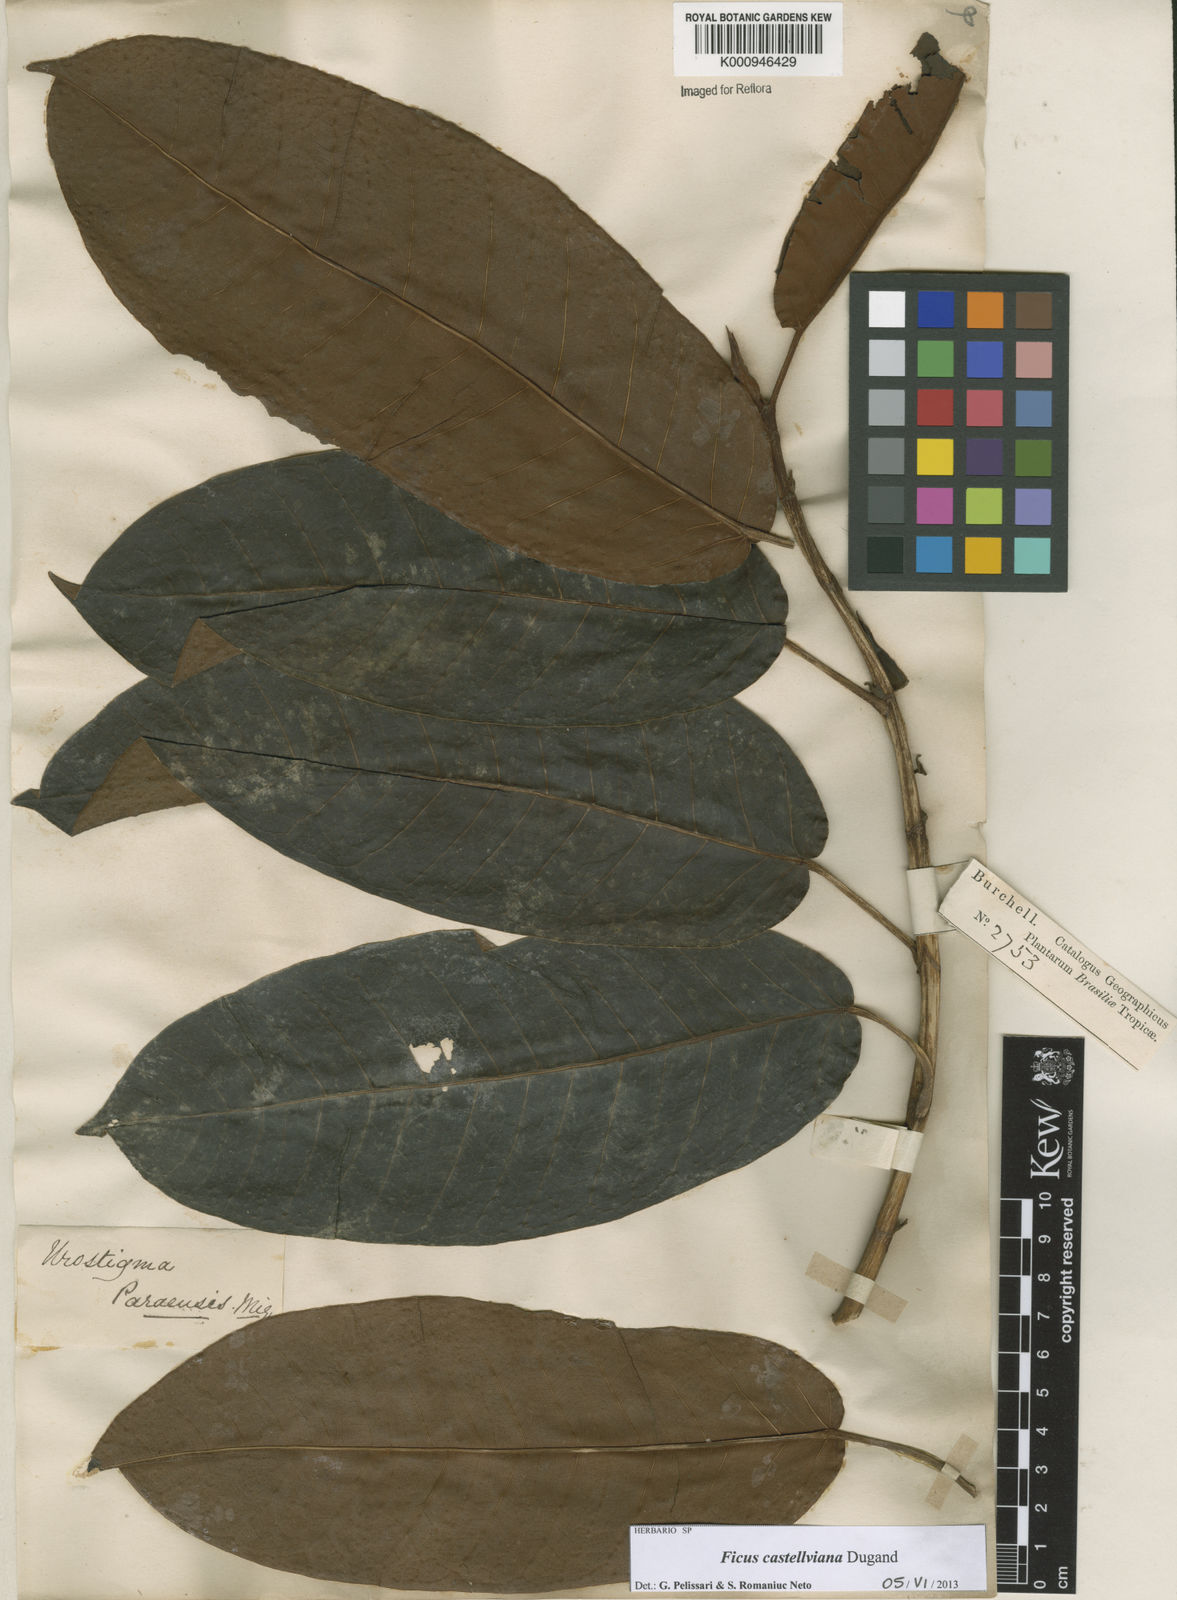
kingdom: Plantae
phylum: Tracheophyta
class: Magnoliopsida
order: Rosales
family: Moraceae
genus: Ficus
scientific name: Ficus castellviana
